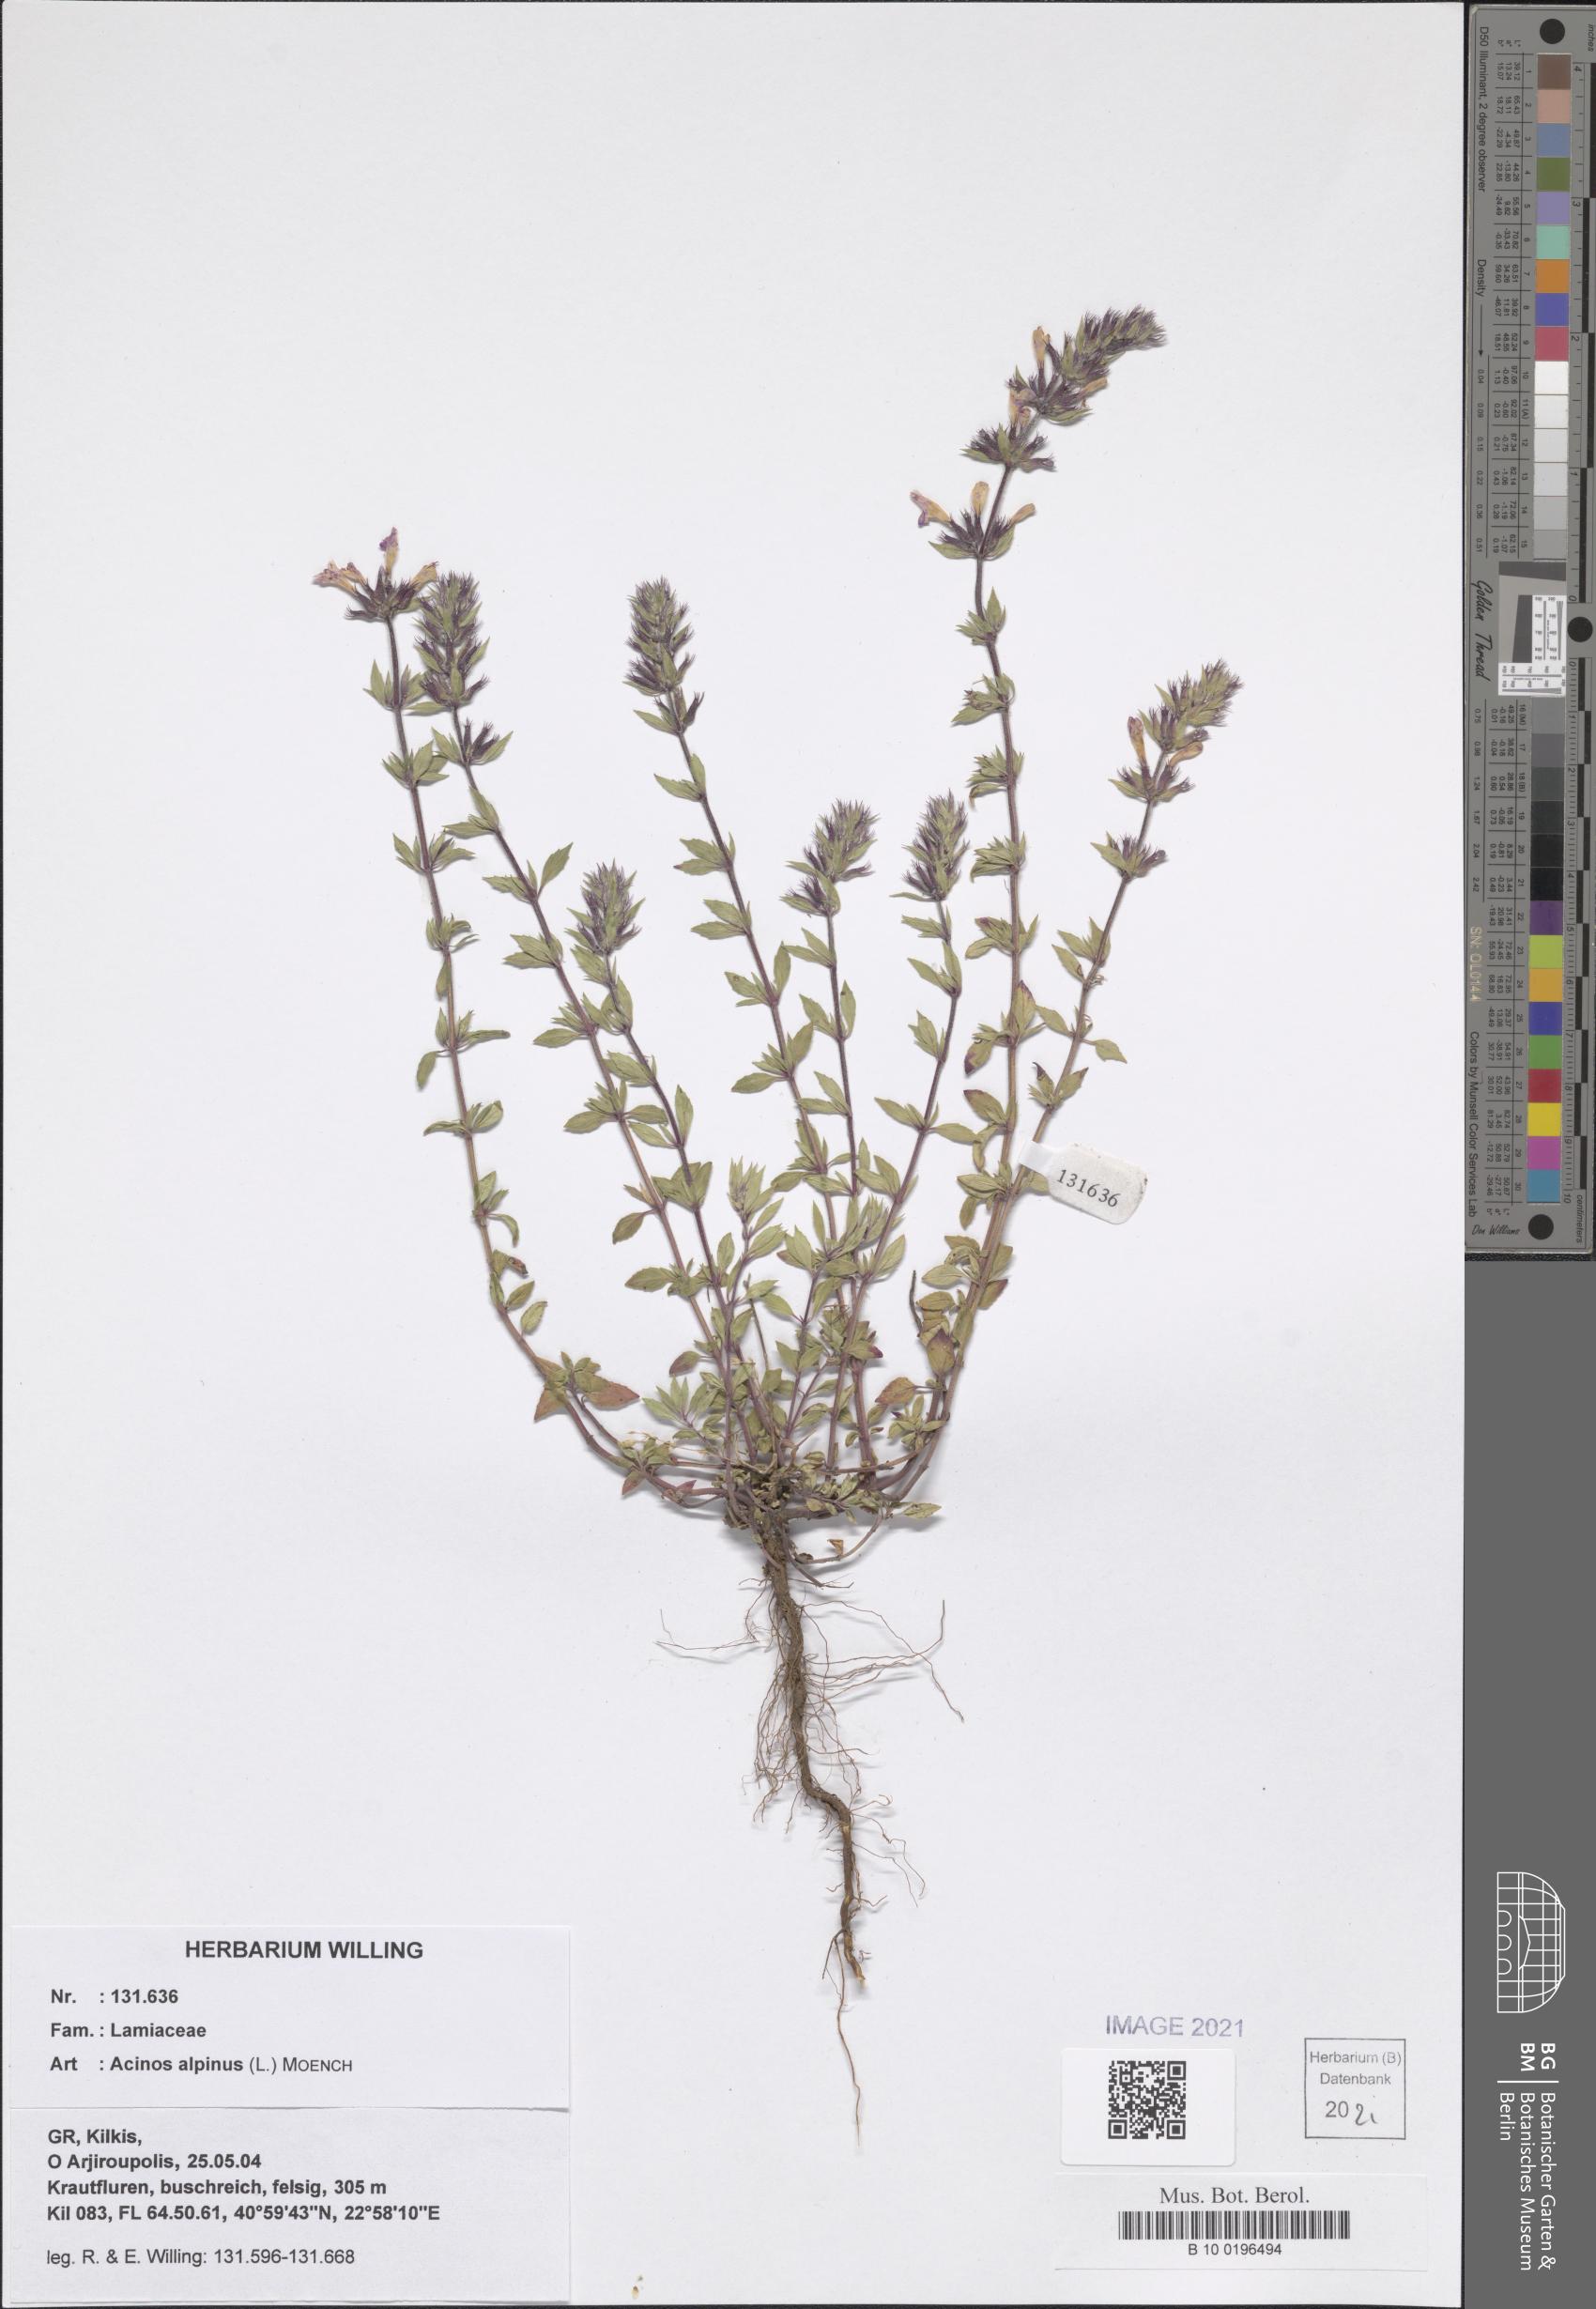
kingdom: Plantae
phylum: Tracheophyta
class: Magnoliopsida
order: Lamiales
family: Lamiaceae
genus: Clinopodium
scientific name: Clinopodium alpinum
